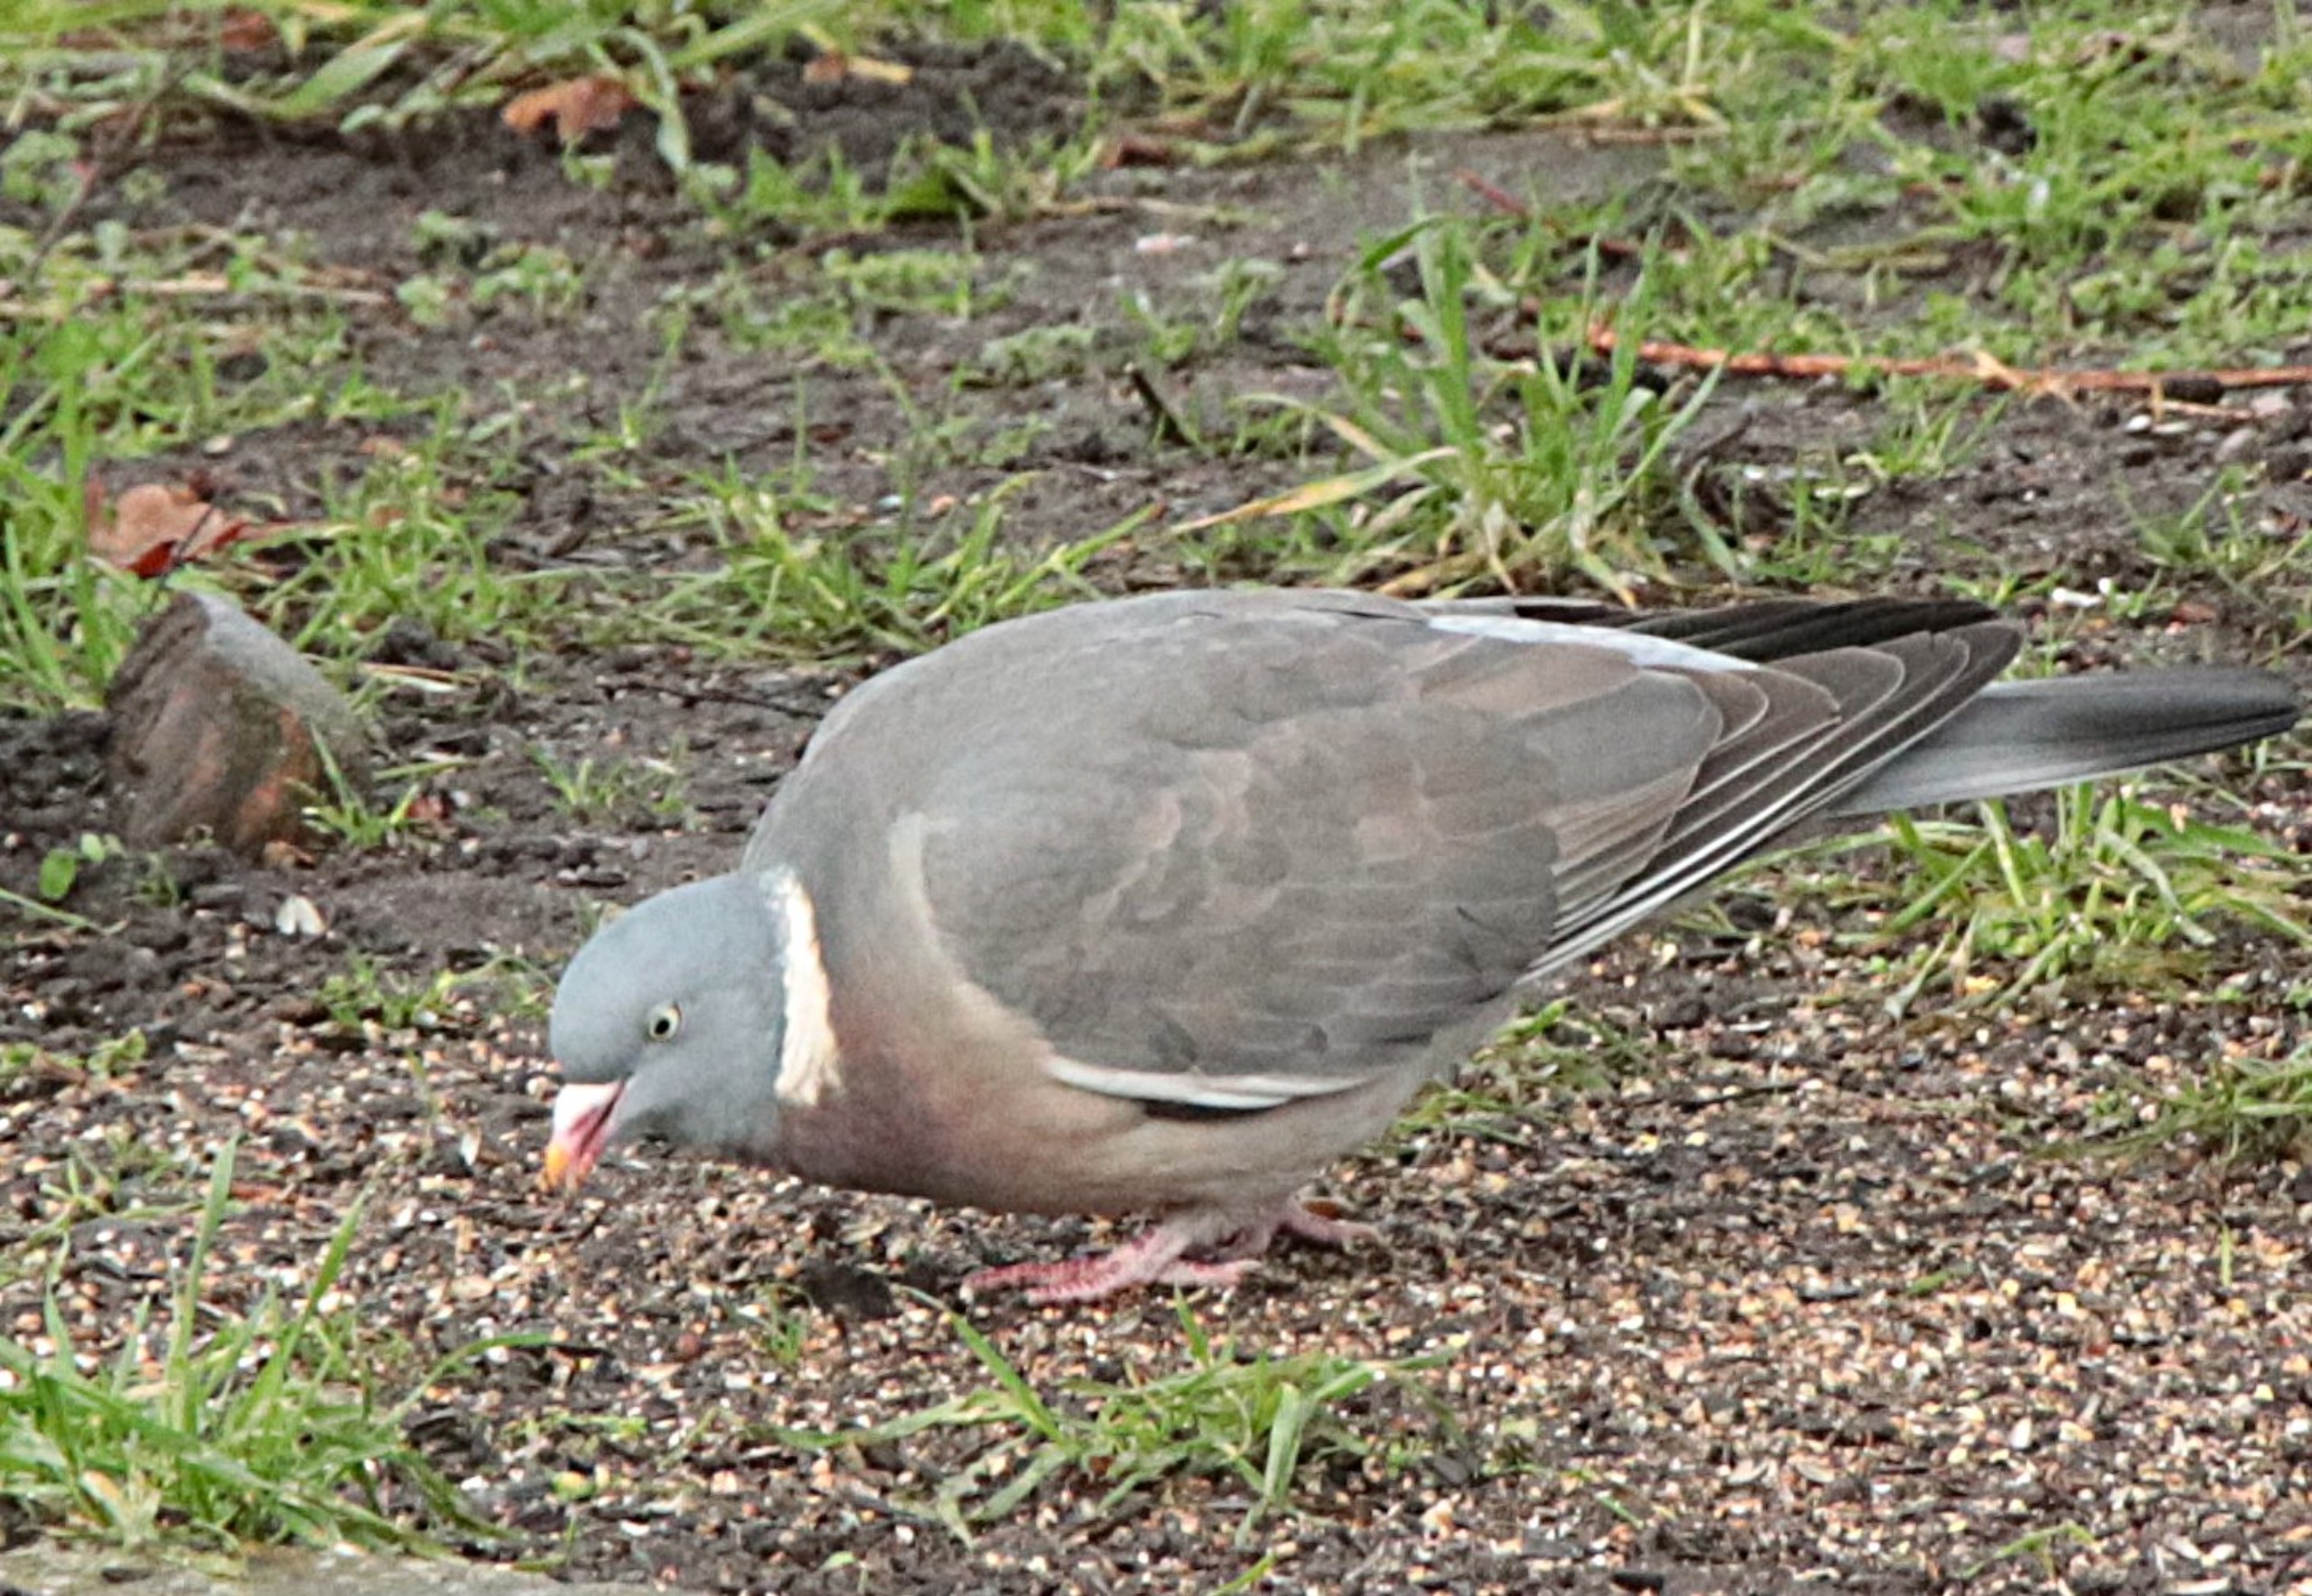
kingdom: Animalia
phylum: Chordata
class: Aves
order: Columbiformes
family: Columbidae
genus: Columba
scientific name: Columba palumbus
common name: Ringdue
